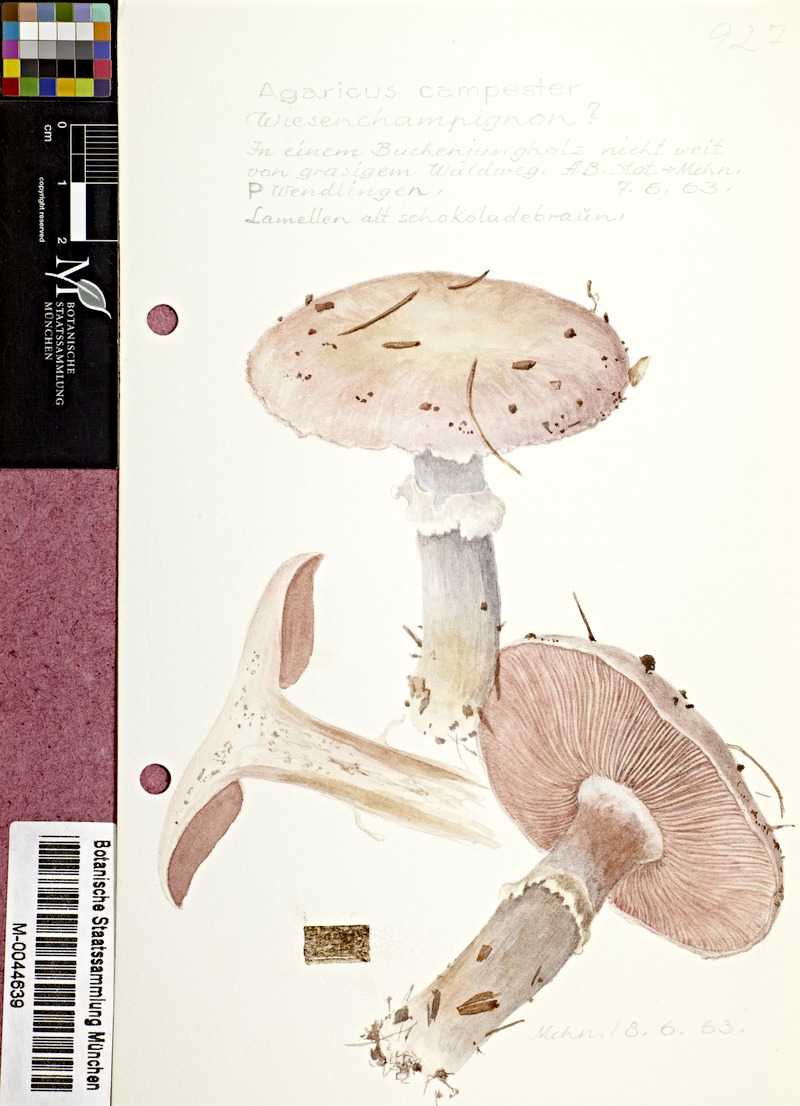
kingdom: Fungi
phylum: Basidiomycota
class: Agaricomycetes
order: Agaricales
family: Agaricaceae
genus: Agaricus
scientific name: Agaricus campestris
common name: Field mushroom
